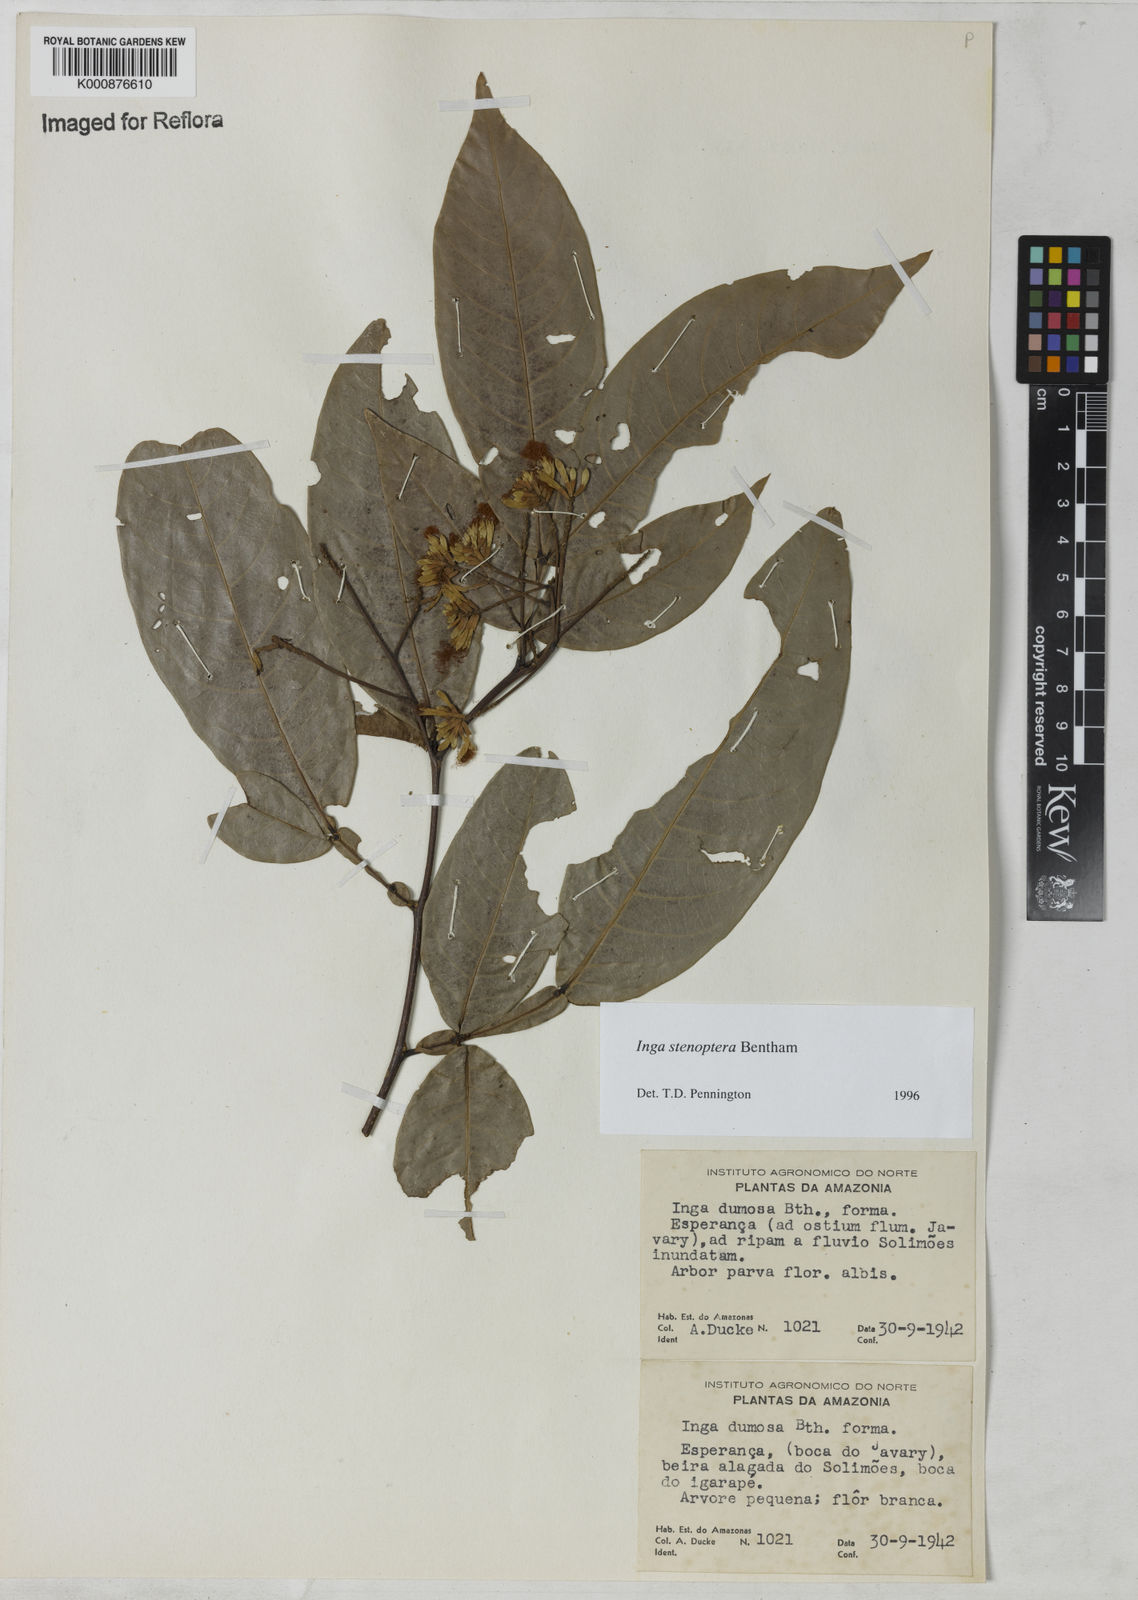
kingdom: Plantae
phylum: Tracheophyta
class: Magnoliopsida
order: Fabales
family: Fabaceae
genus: Inga
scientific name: Inga stenoptera
